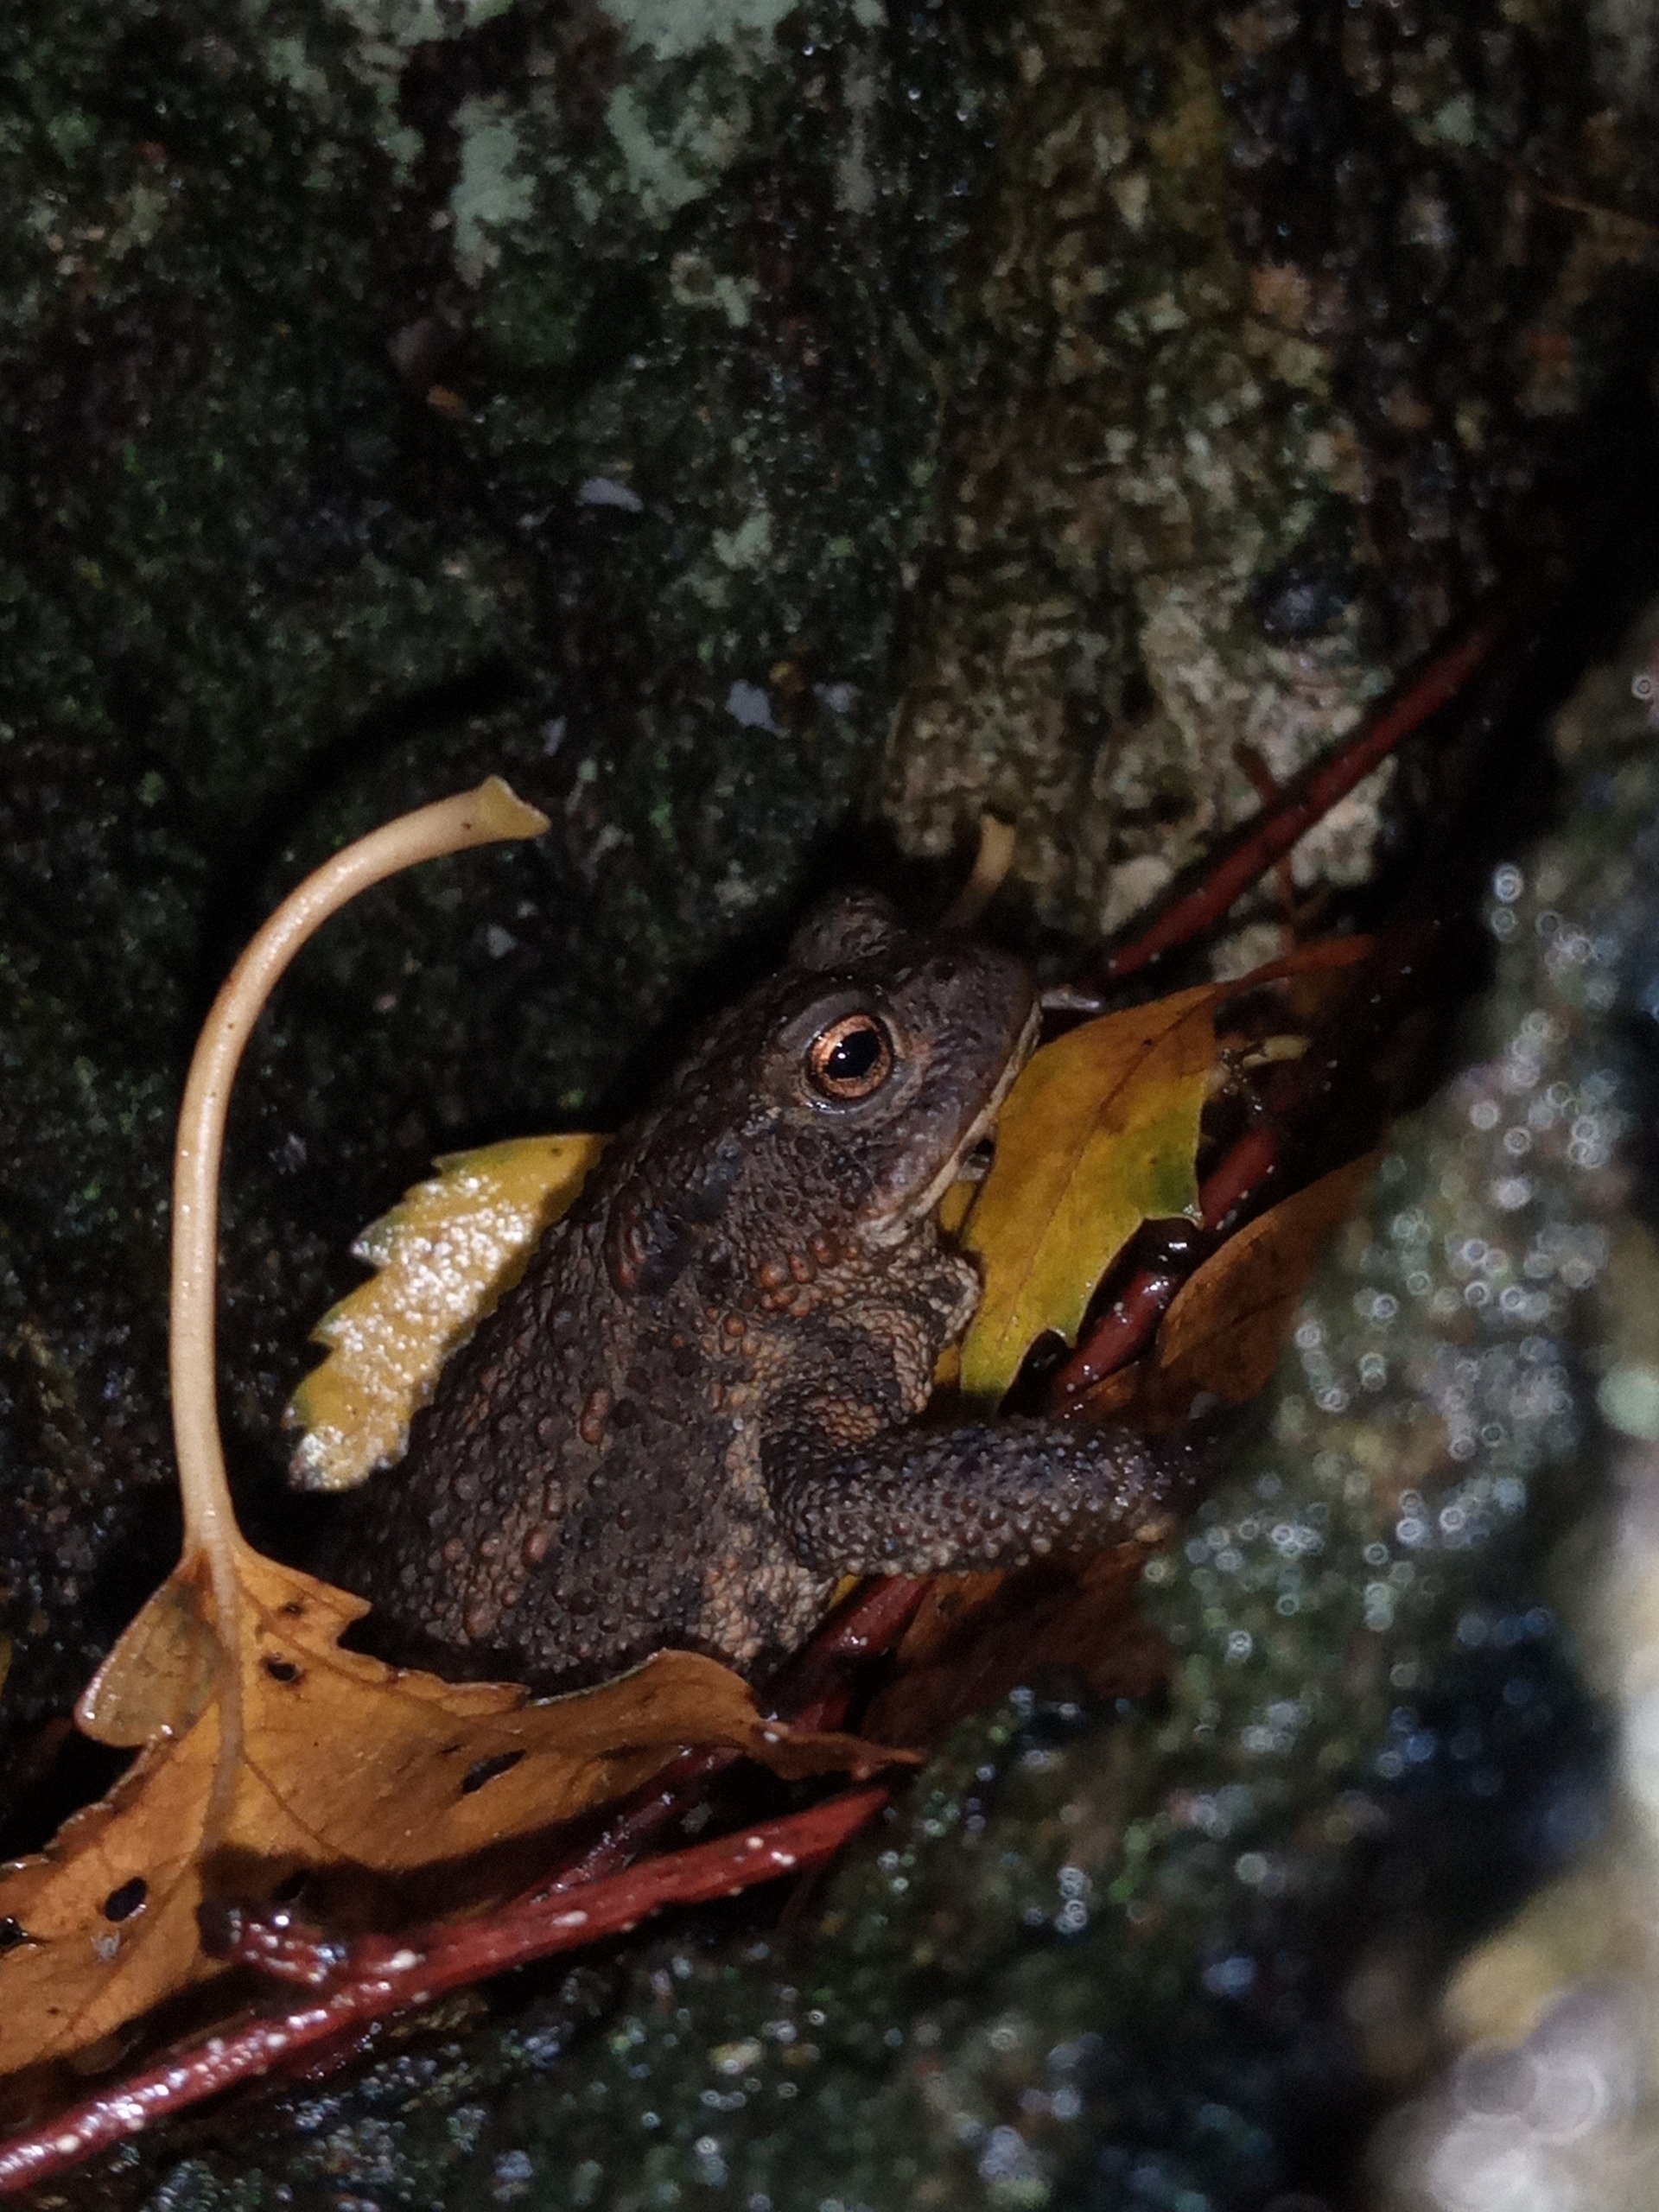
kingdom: Animalia
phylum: Chordata
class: Amphibia
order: Anura
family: Bufonidae
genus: Bufo
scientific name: Bufo bufo
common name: Skrubtudse
